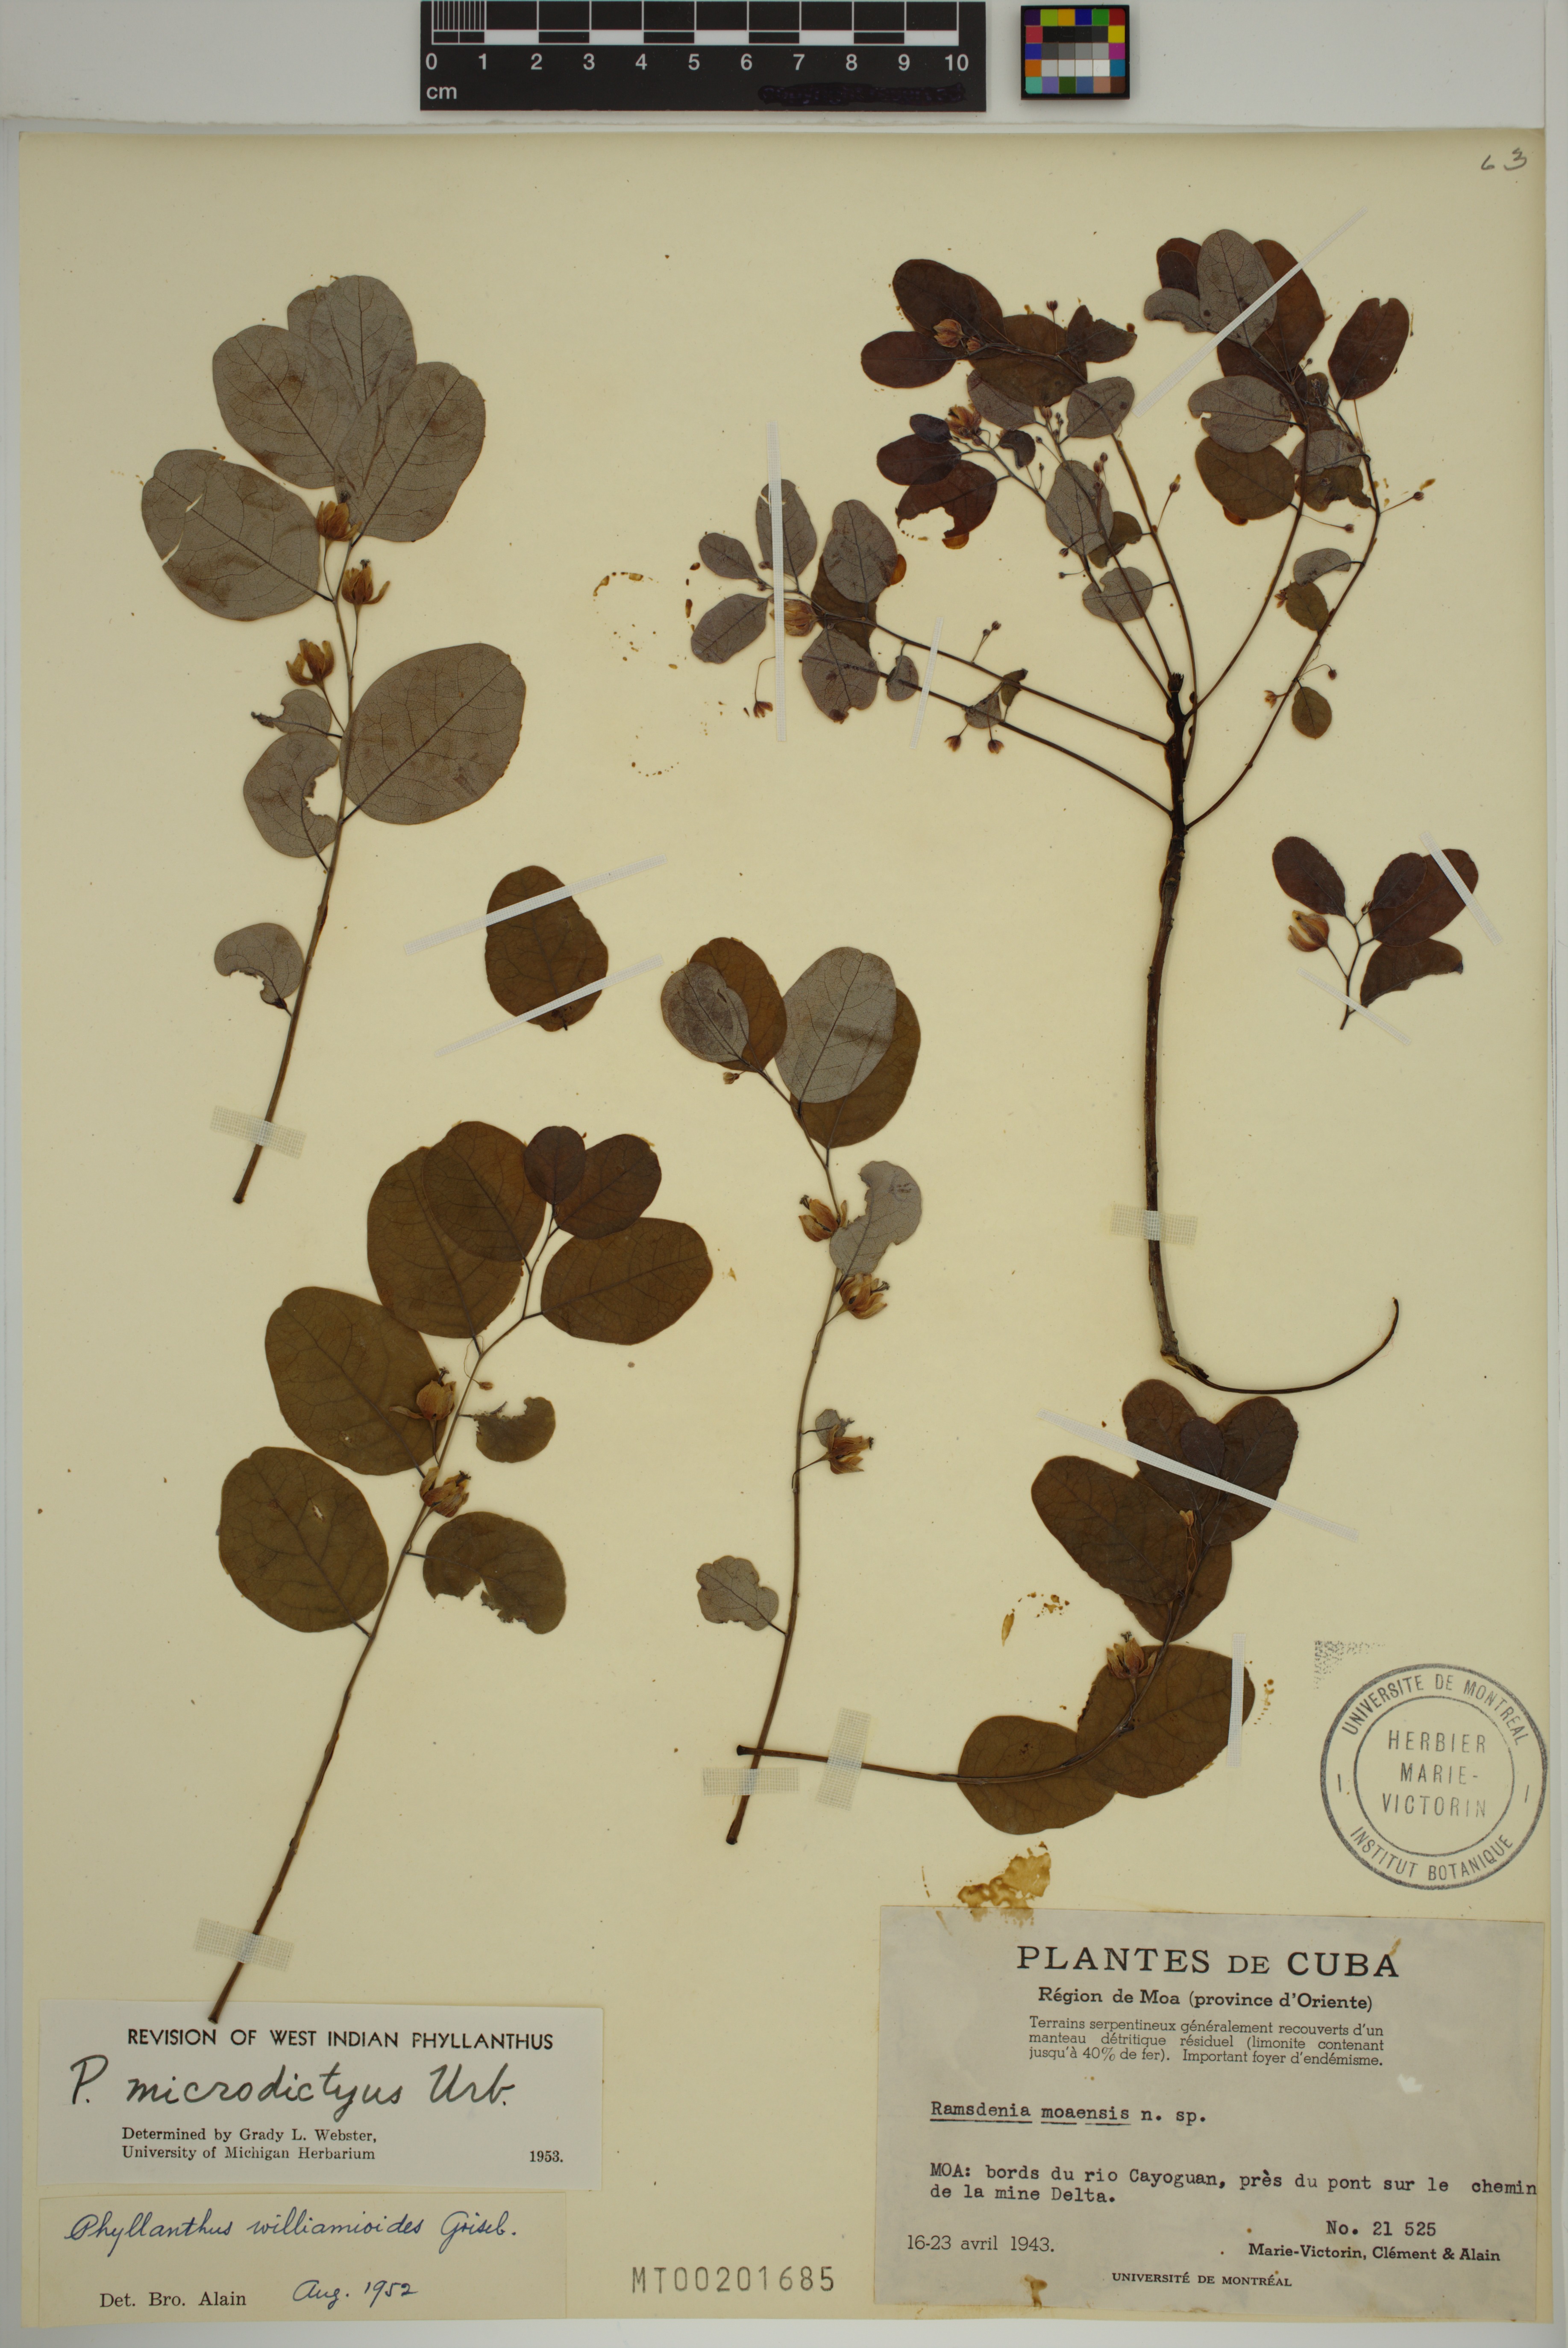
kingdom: Plantae
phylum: Tracheophyta
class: Magnoliopsida
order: Malpighiales
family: Phyllanthaceae
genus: Phyllanthus
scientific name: Phyllanthus microdictyus
